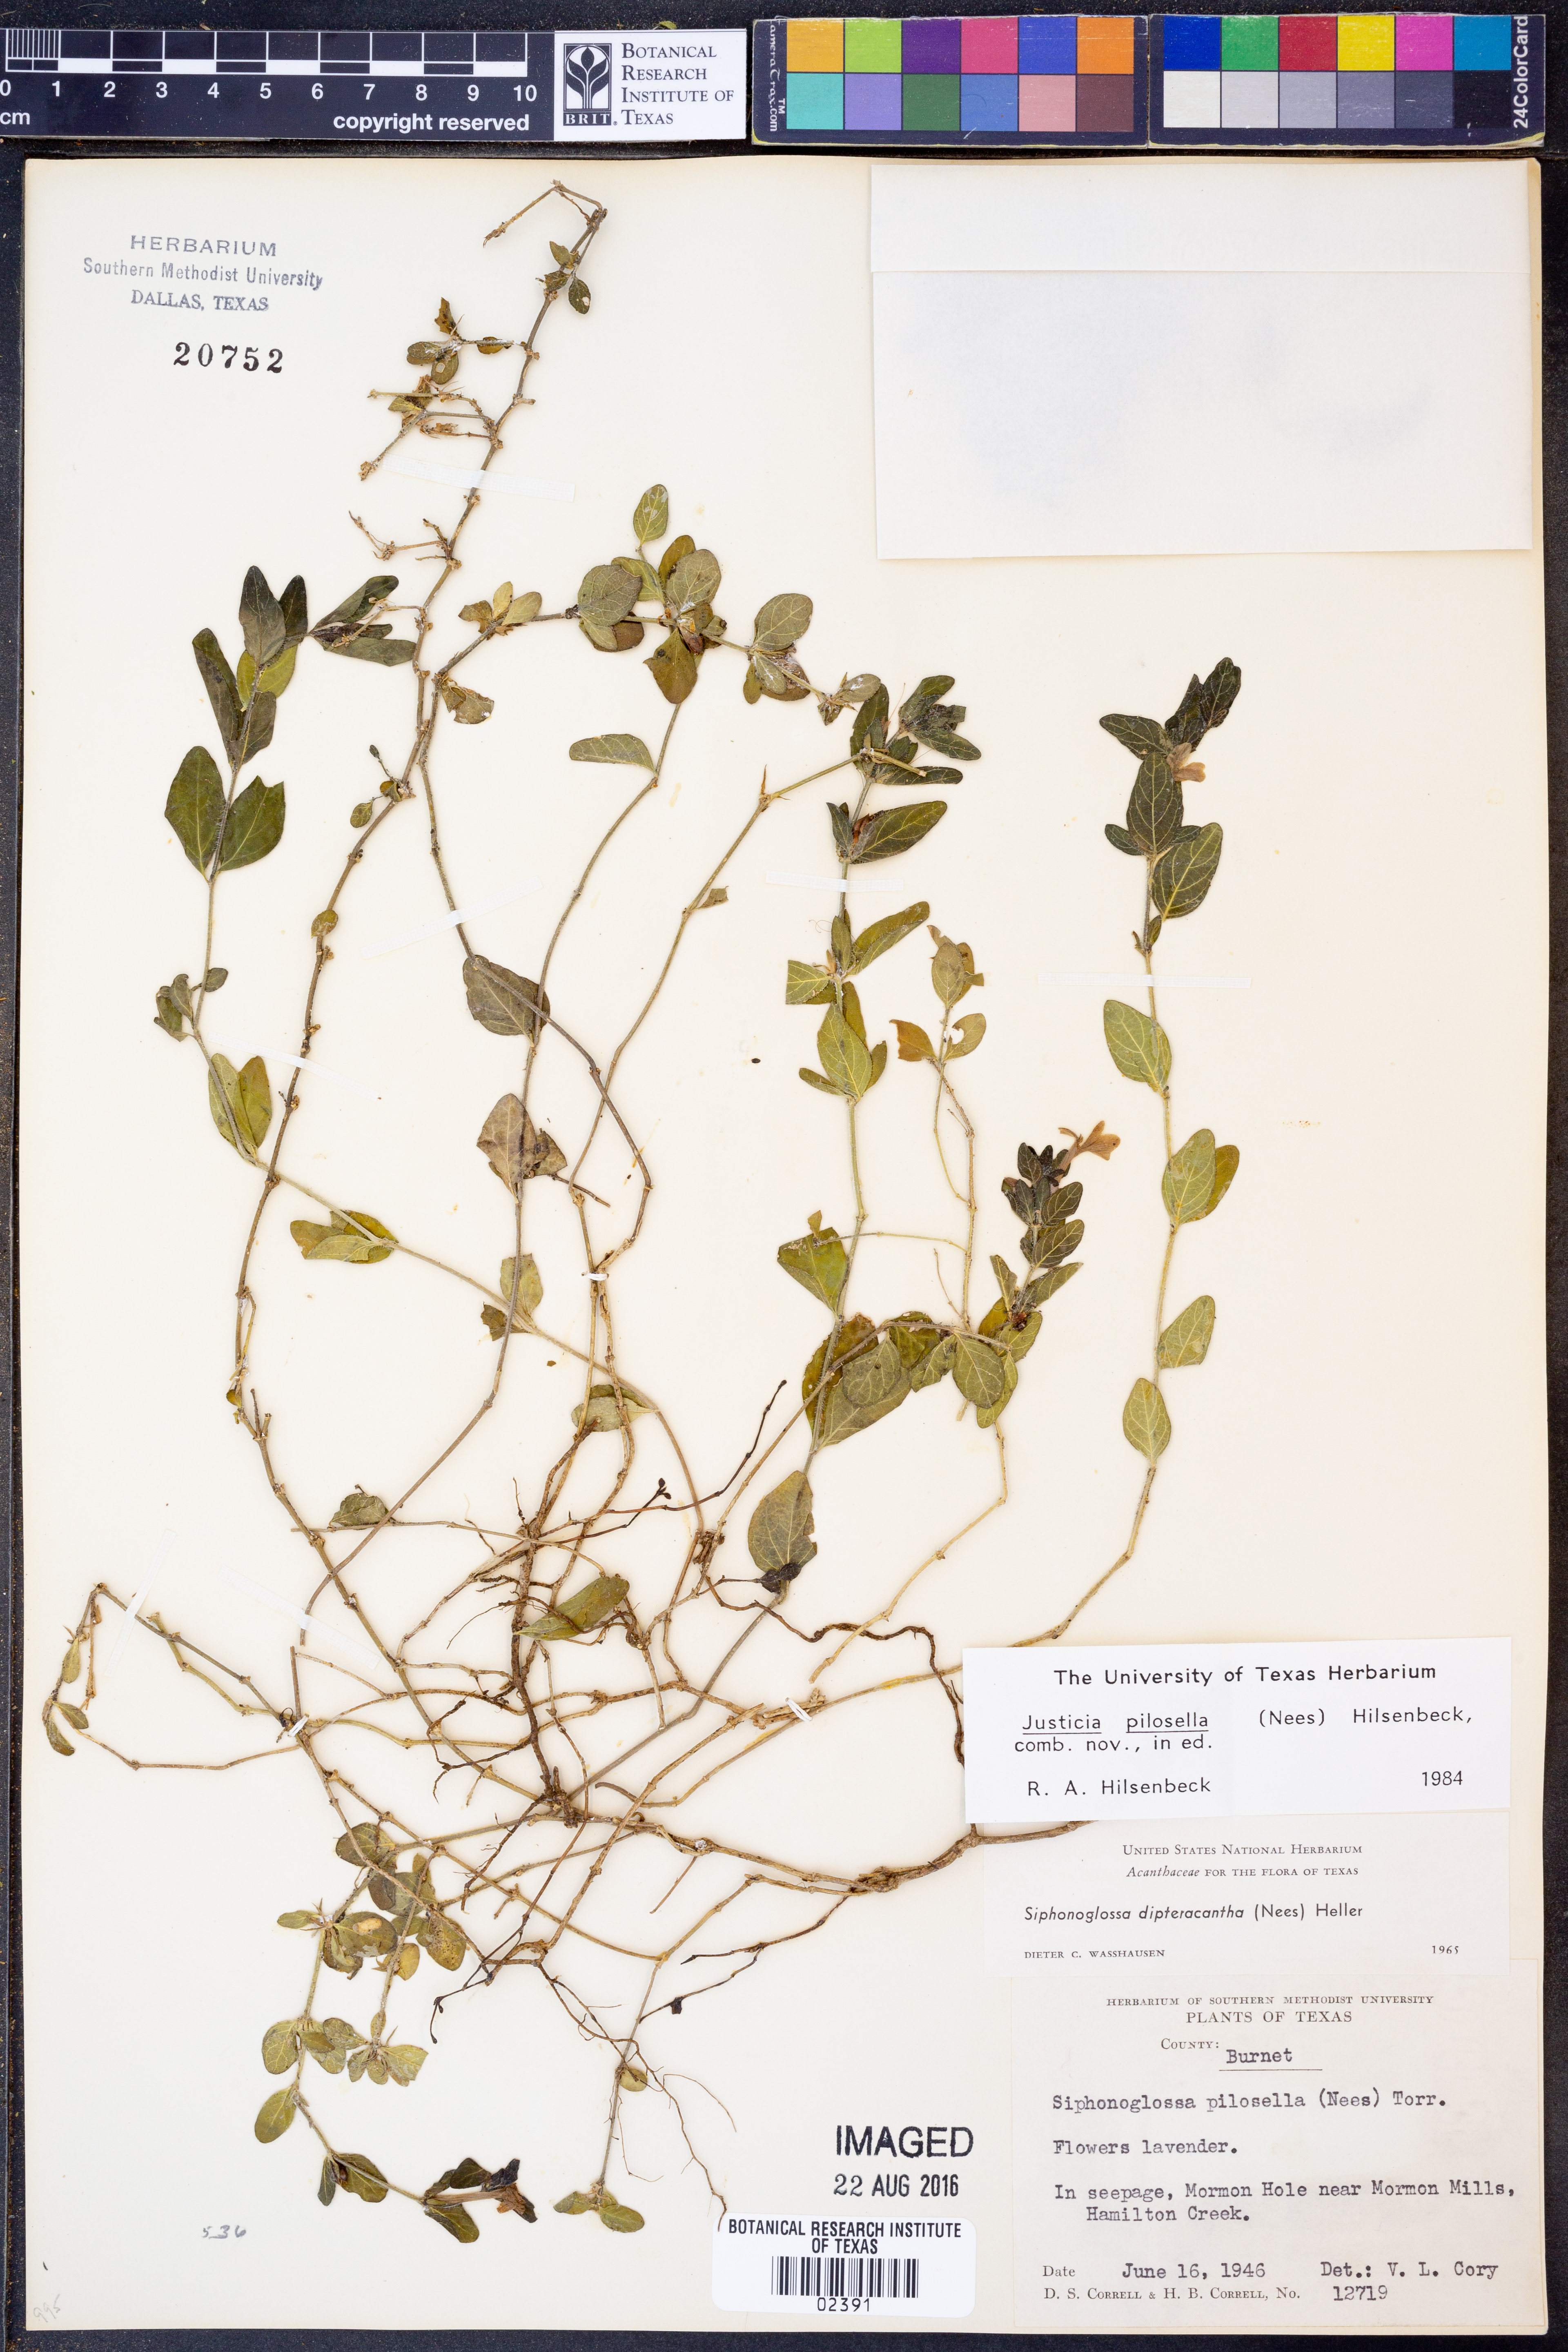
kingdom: Plantae
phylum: Tracheophyta
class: Magnoliopsida
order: Lamiales
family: Acanthaceae
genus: Justicia
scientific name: Justicia pilosella
